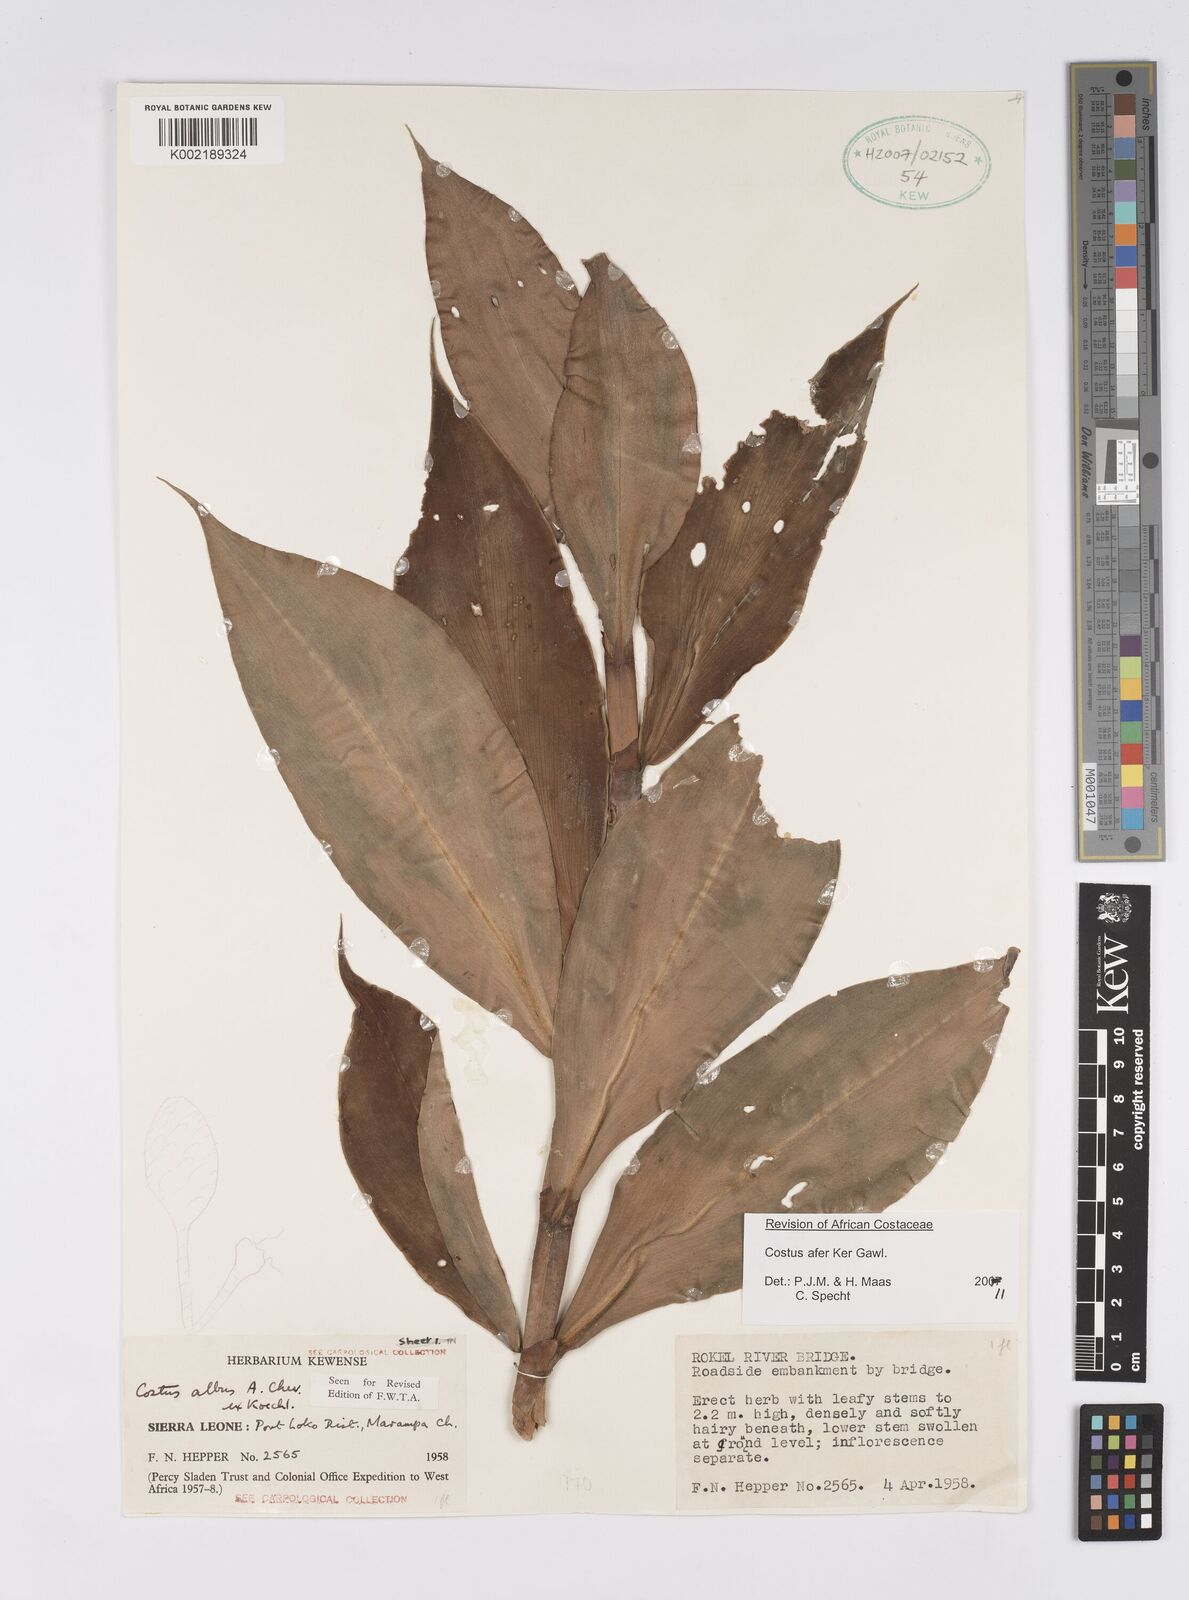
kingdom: Plantae
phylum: Tracheophyta
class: Liliopsida
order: Zingiberales
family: Costaceae
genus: Costus
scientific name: Costus afer
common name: Spiral-ginger
